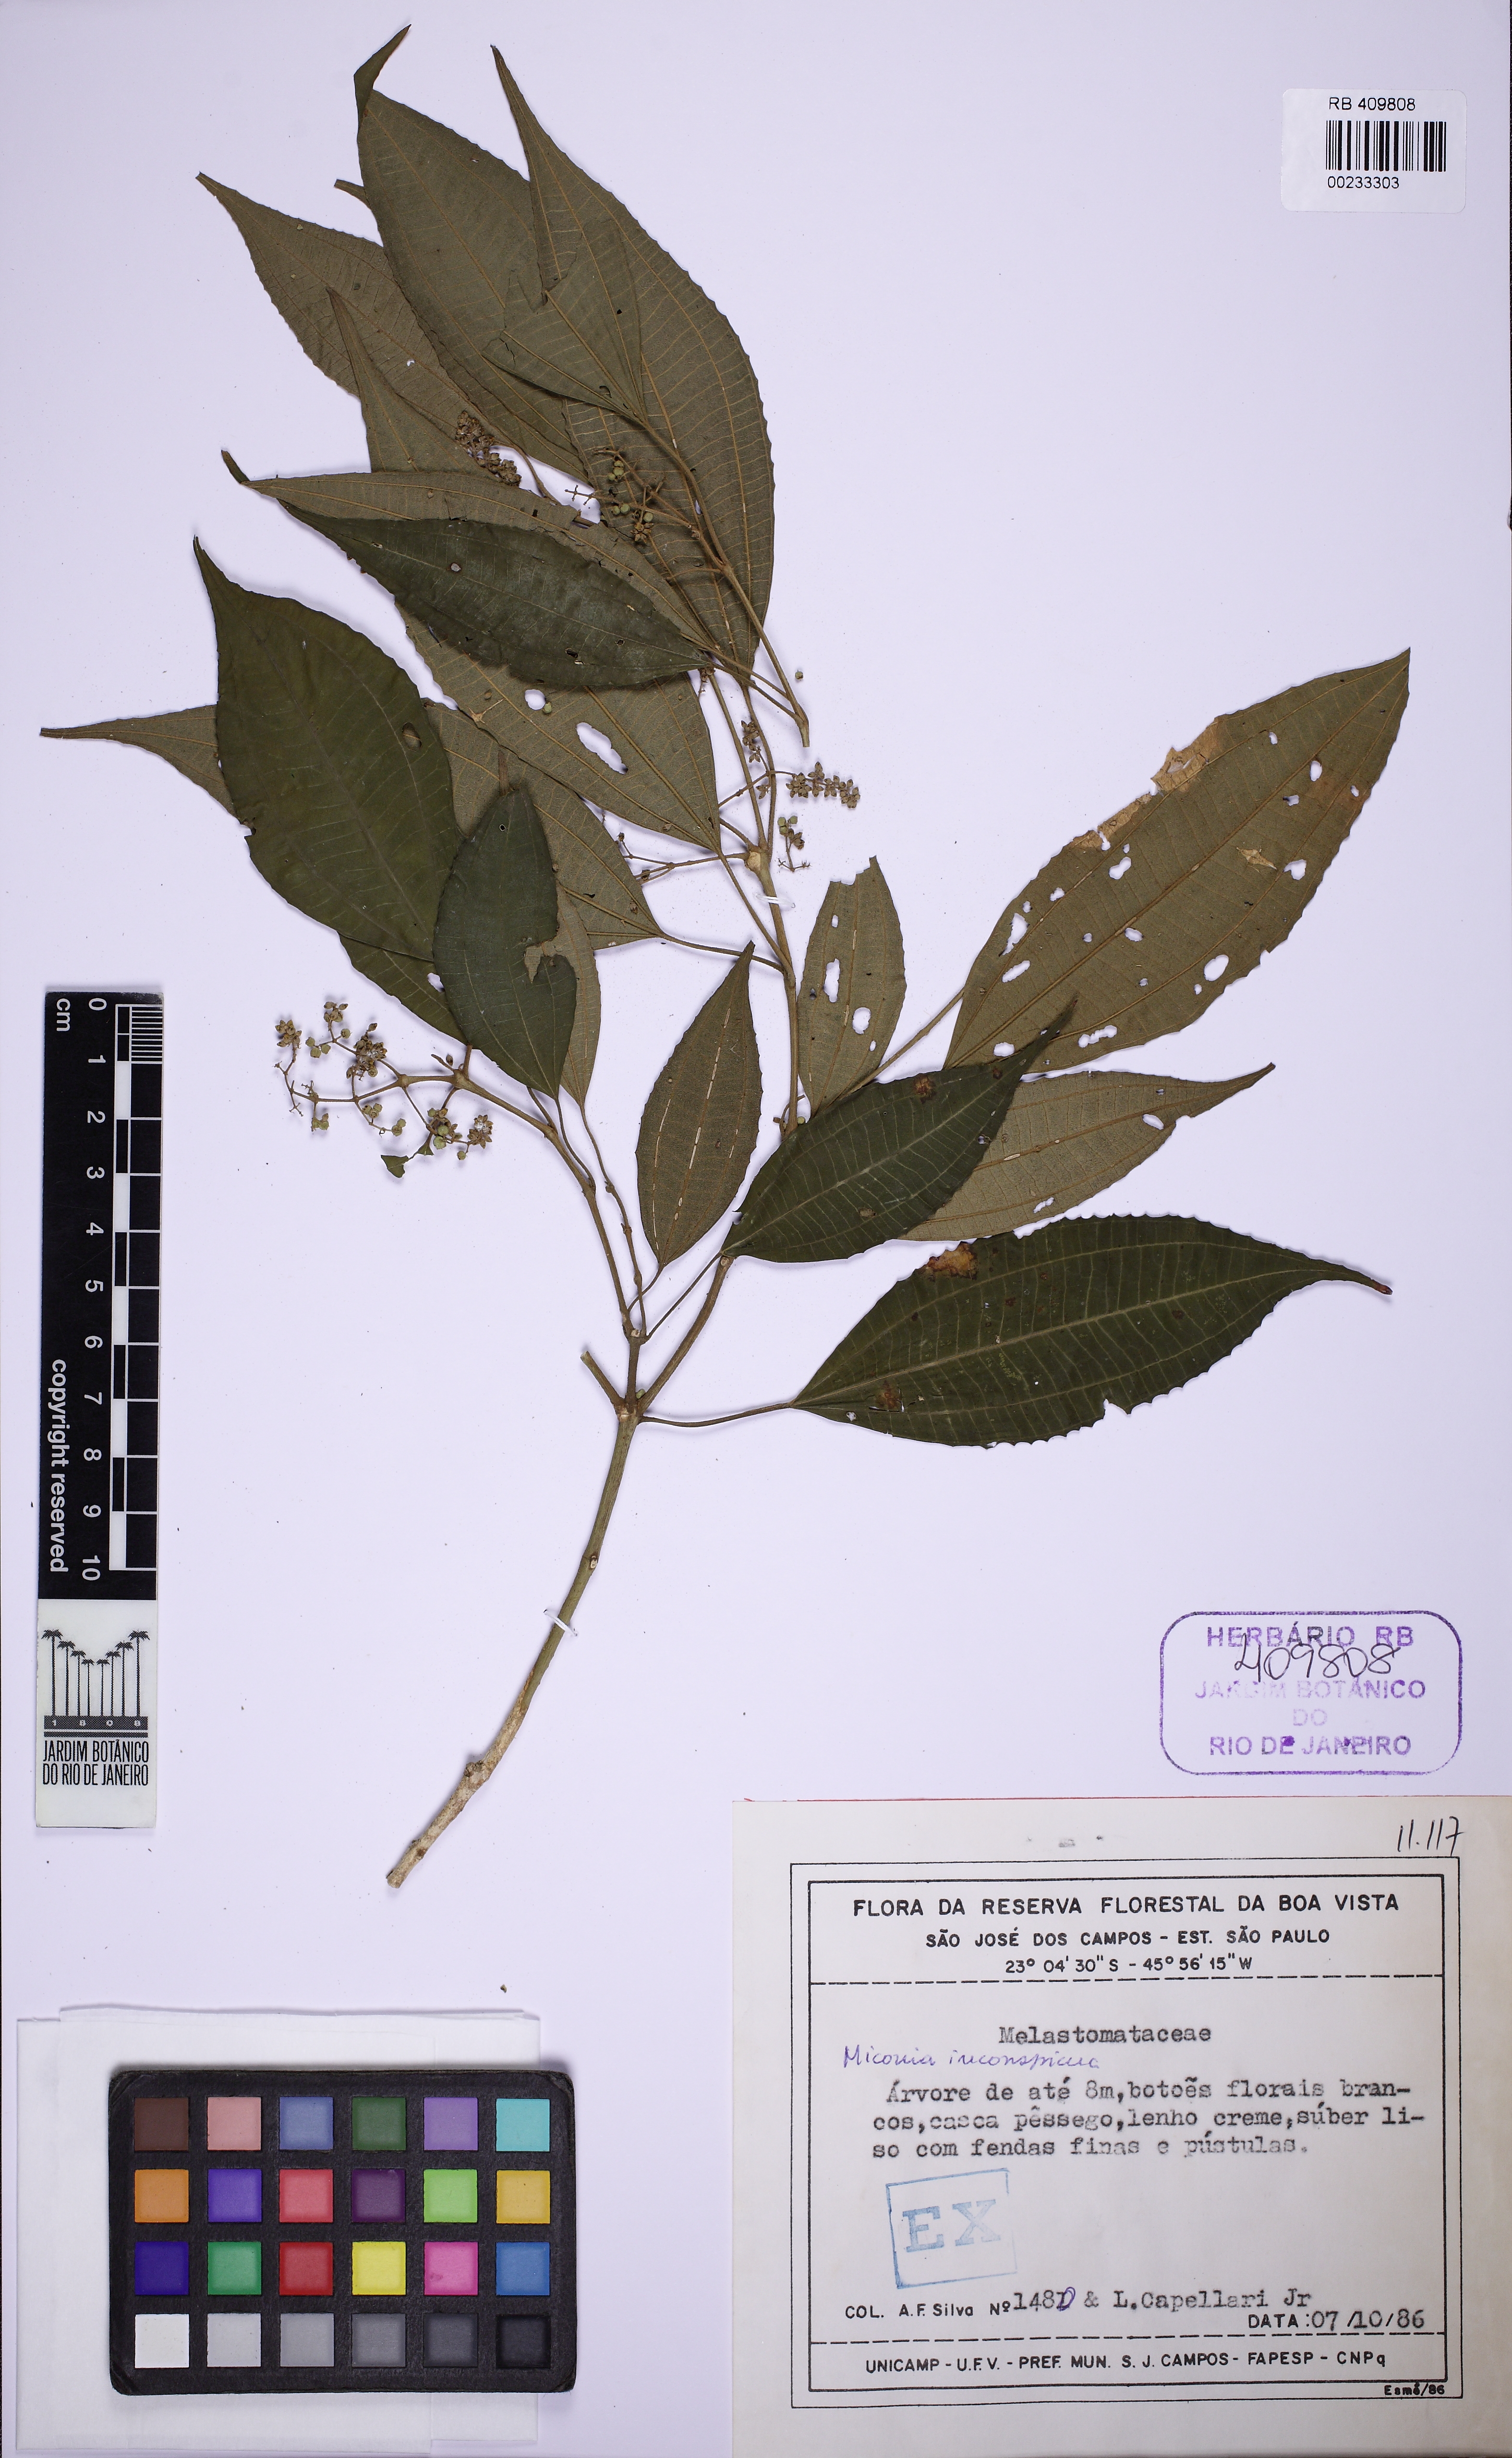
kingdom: Plantae
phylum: Tracheophyta
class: Magnoliopsida
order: Myrtales
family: Melastomataceae
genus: Miconia
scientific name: Miconia inconspicua
